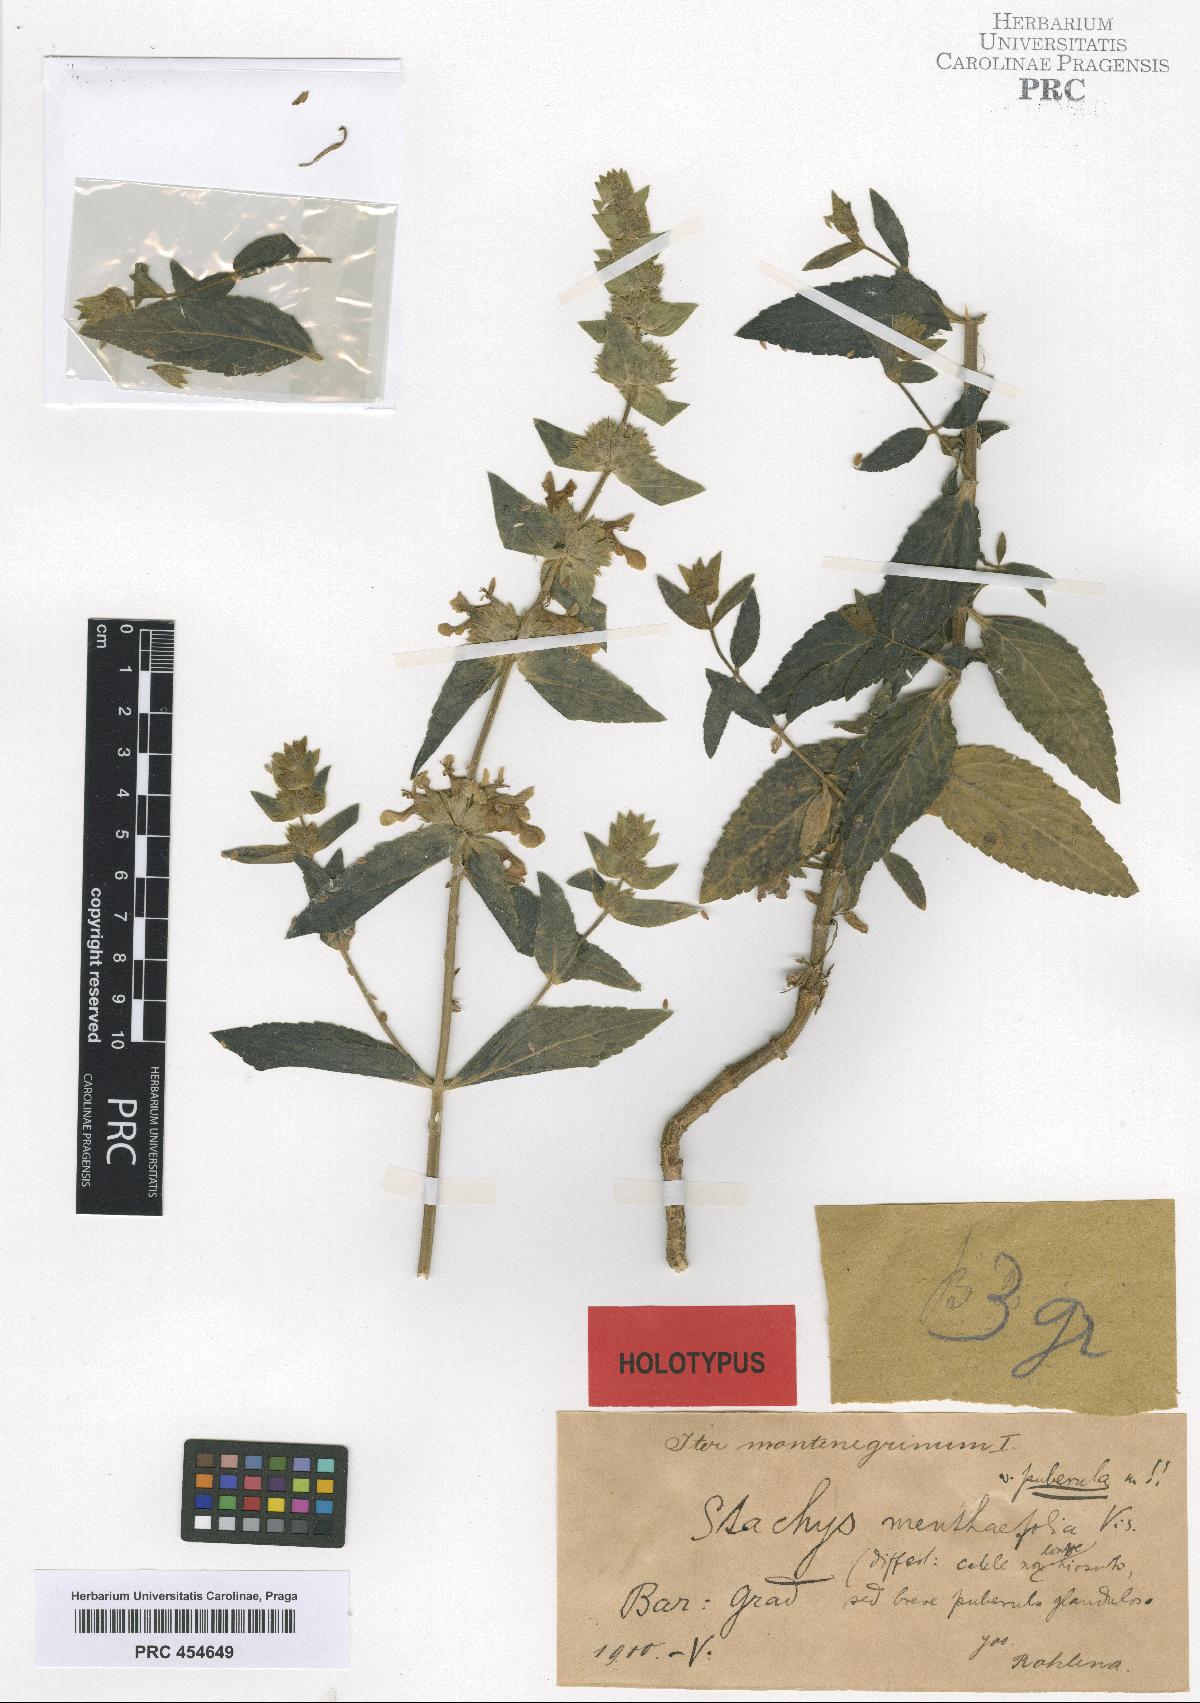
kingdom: Plantae
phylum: Tracheophyta
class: Magnoliopsida
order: Lamiales
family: Lamiaceae
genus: Stachys
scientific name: Stachys menthifolia
